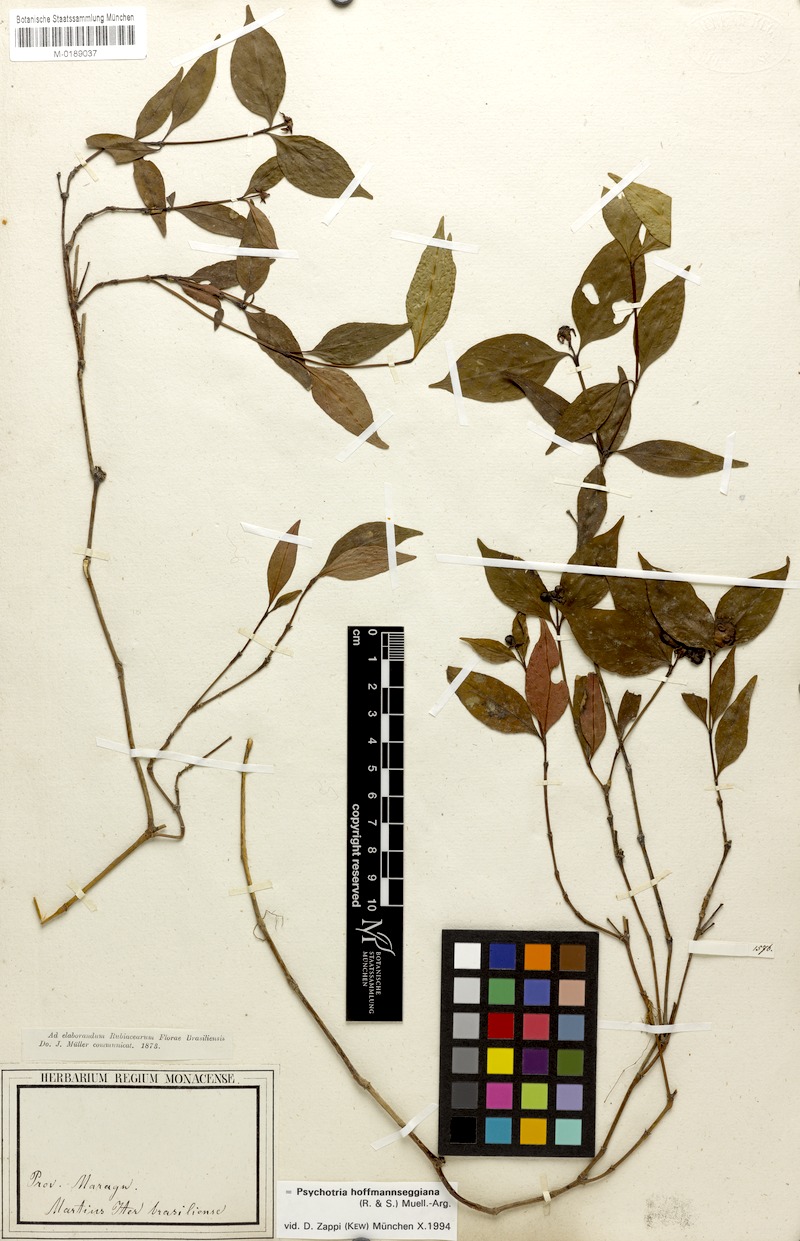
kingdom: Plantae
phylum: Tracheophyta
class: Magnoliopsida
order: Gentianales
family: Rubiaceae
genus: Palicourea
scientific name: Palicourea hoffmannseggiana
